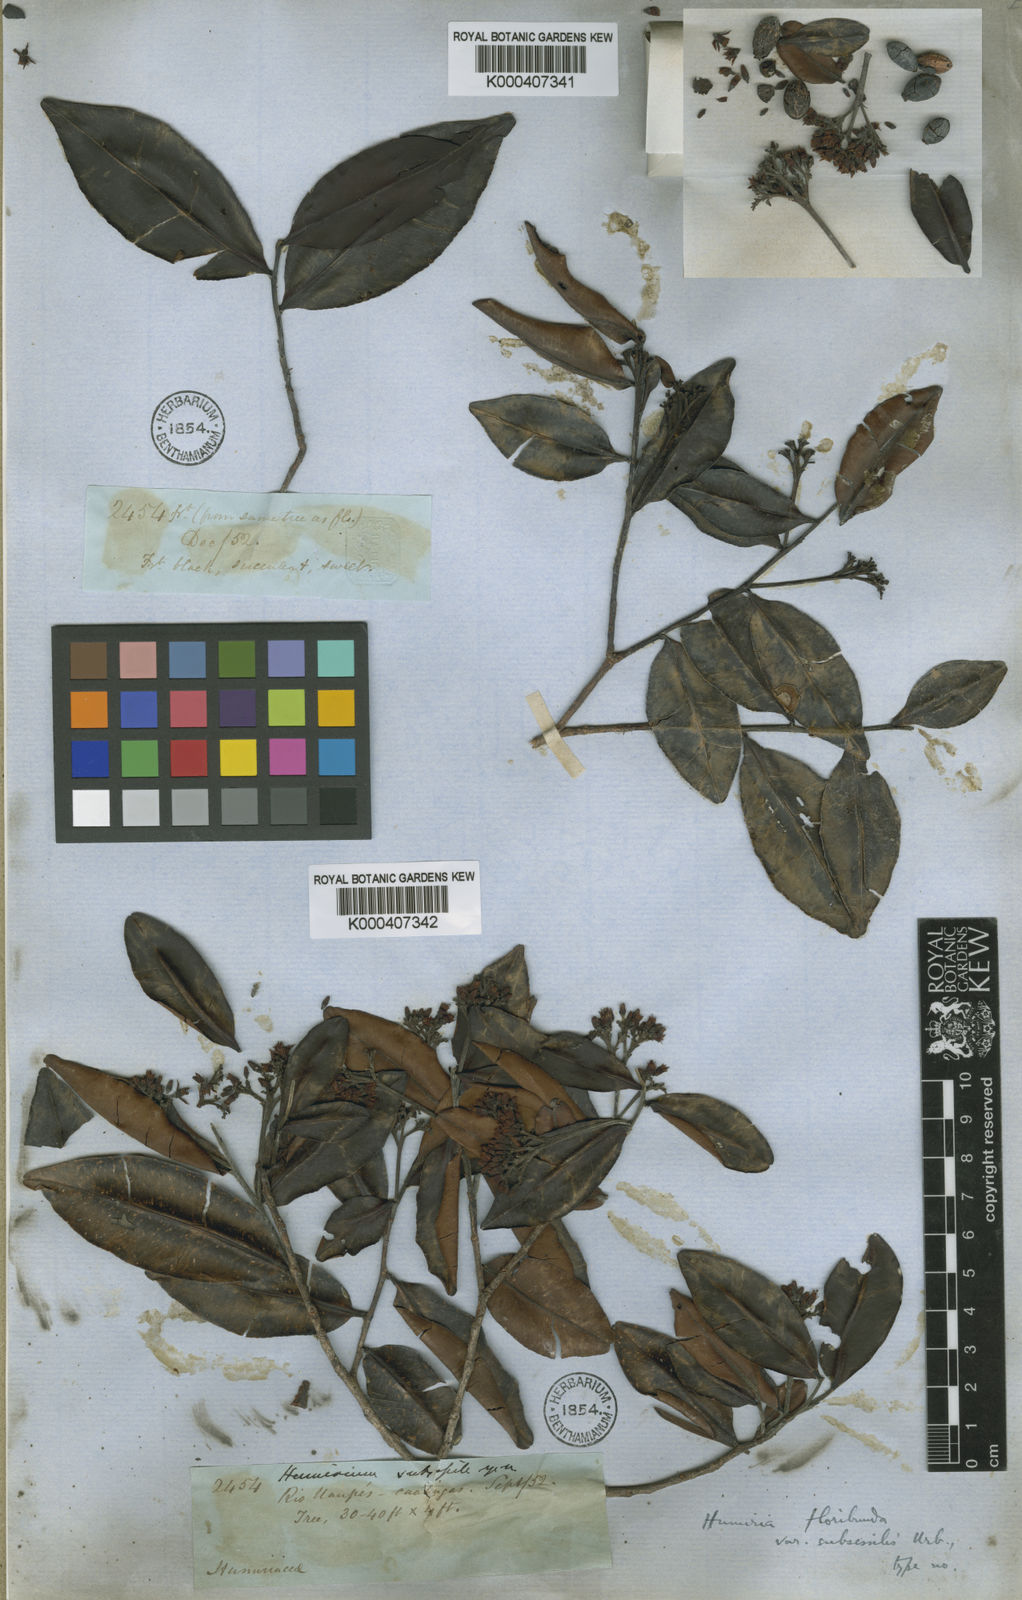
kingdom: Plantae
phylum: Tracheophyta
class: Magnoliopsida
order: Malpighiales
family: Humiriaceae
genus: Humiria
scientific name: Humiria balsamifera
